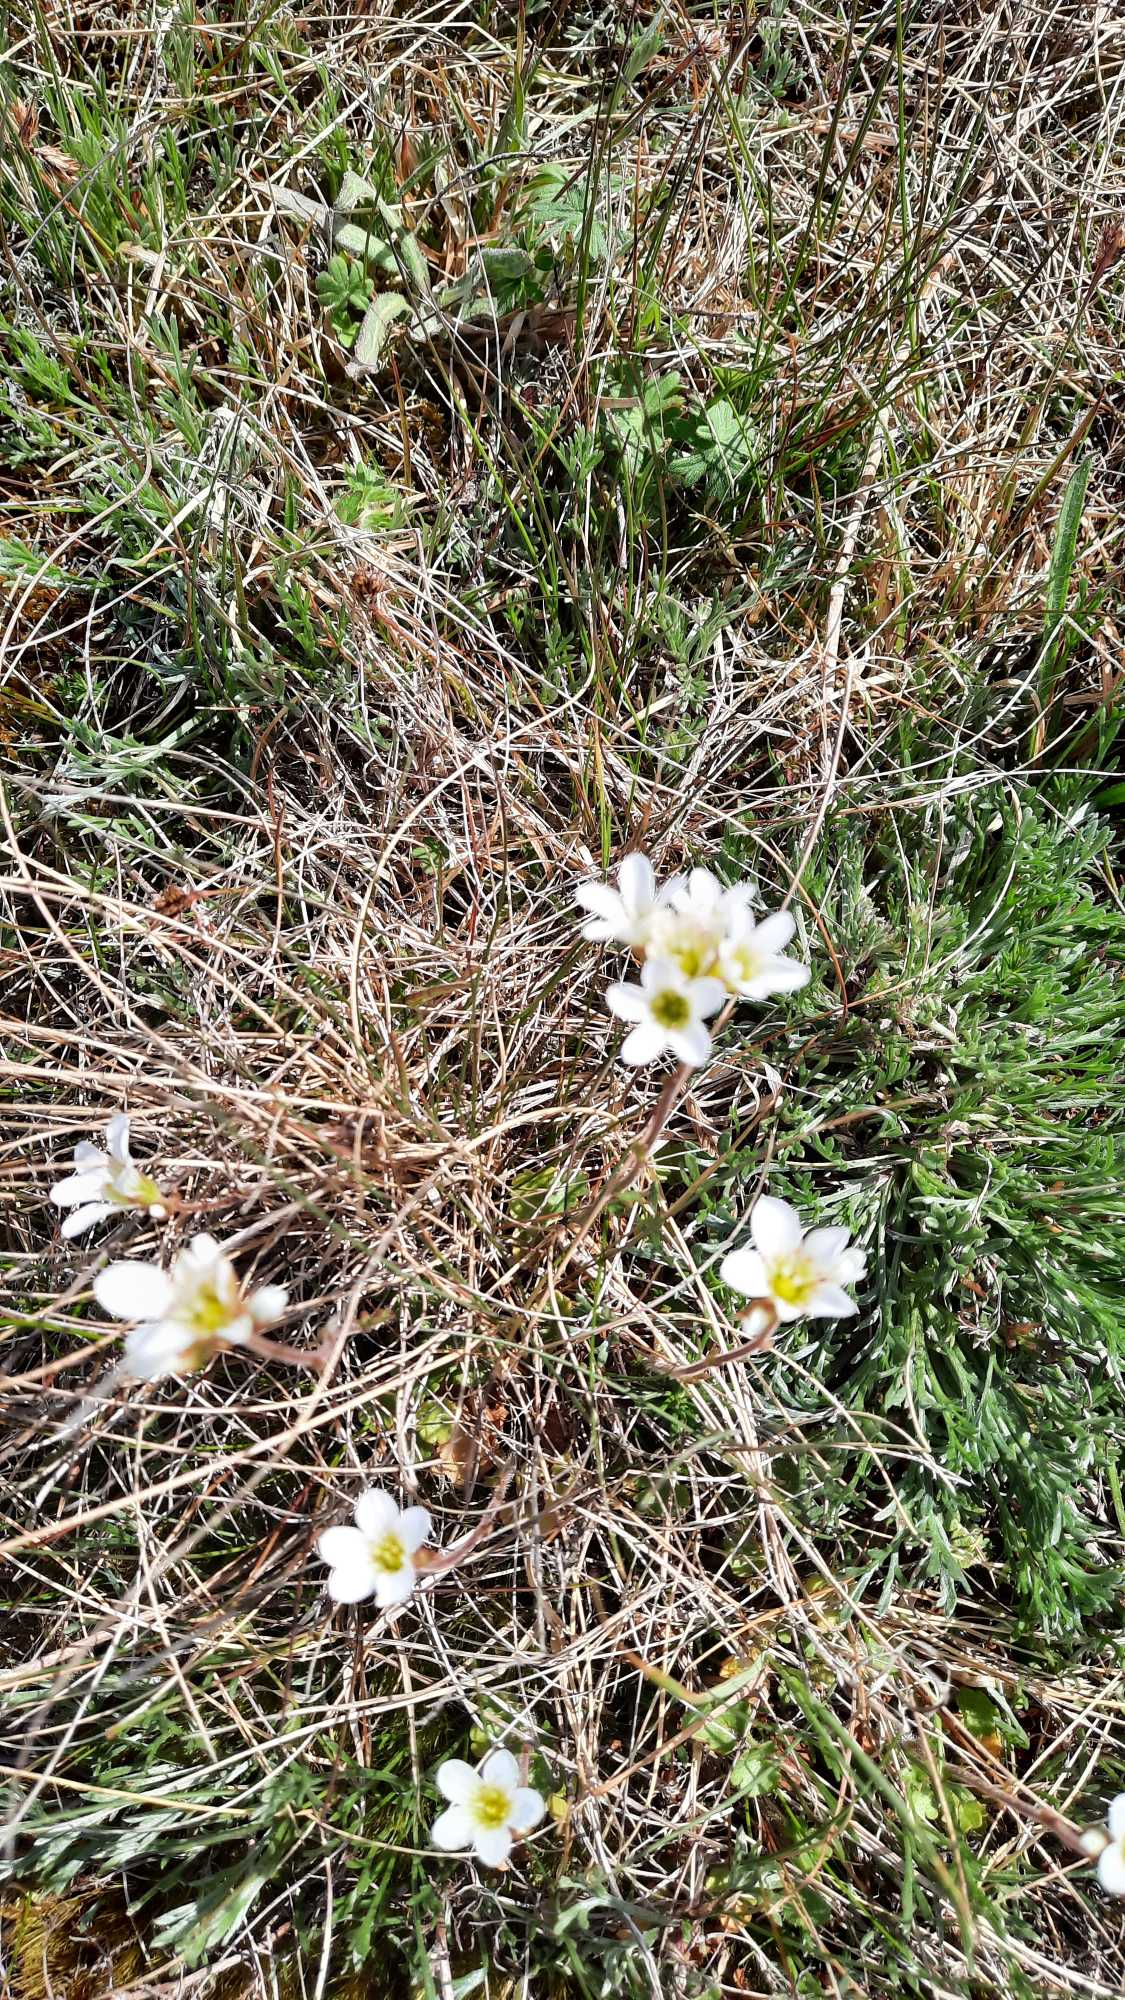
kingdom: Plantae
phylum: Tracheophyta
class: Magnoliopsida
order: Saxifragales
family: Saxifragaceae
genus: Saxifraga
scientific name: Saxifraga granulata
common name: Kornet stenbræk
